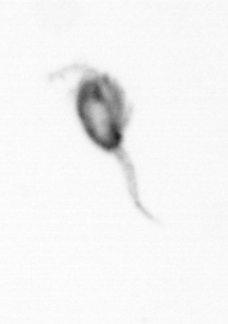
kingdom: Animalia
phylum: Arthropoda
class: Copepoda
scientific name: Copepoda
